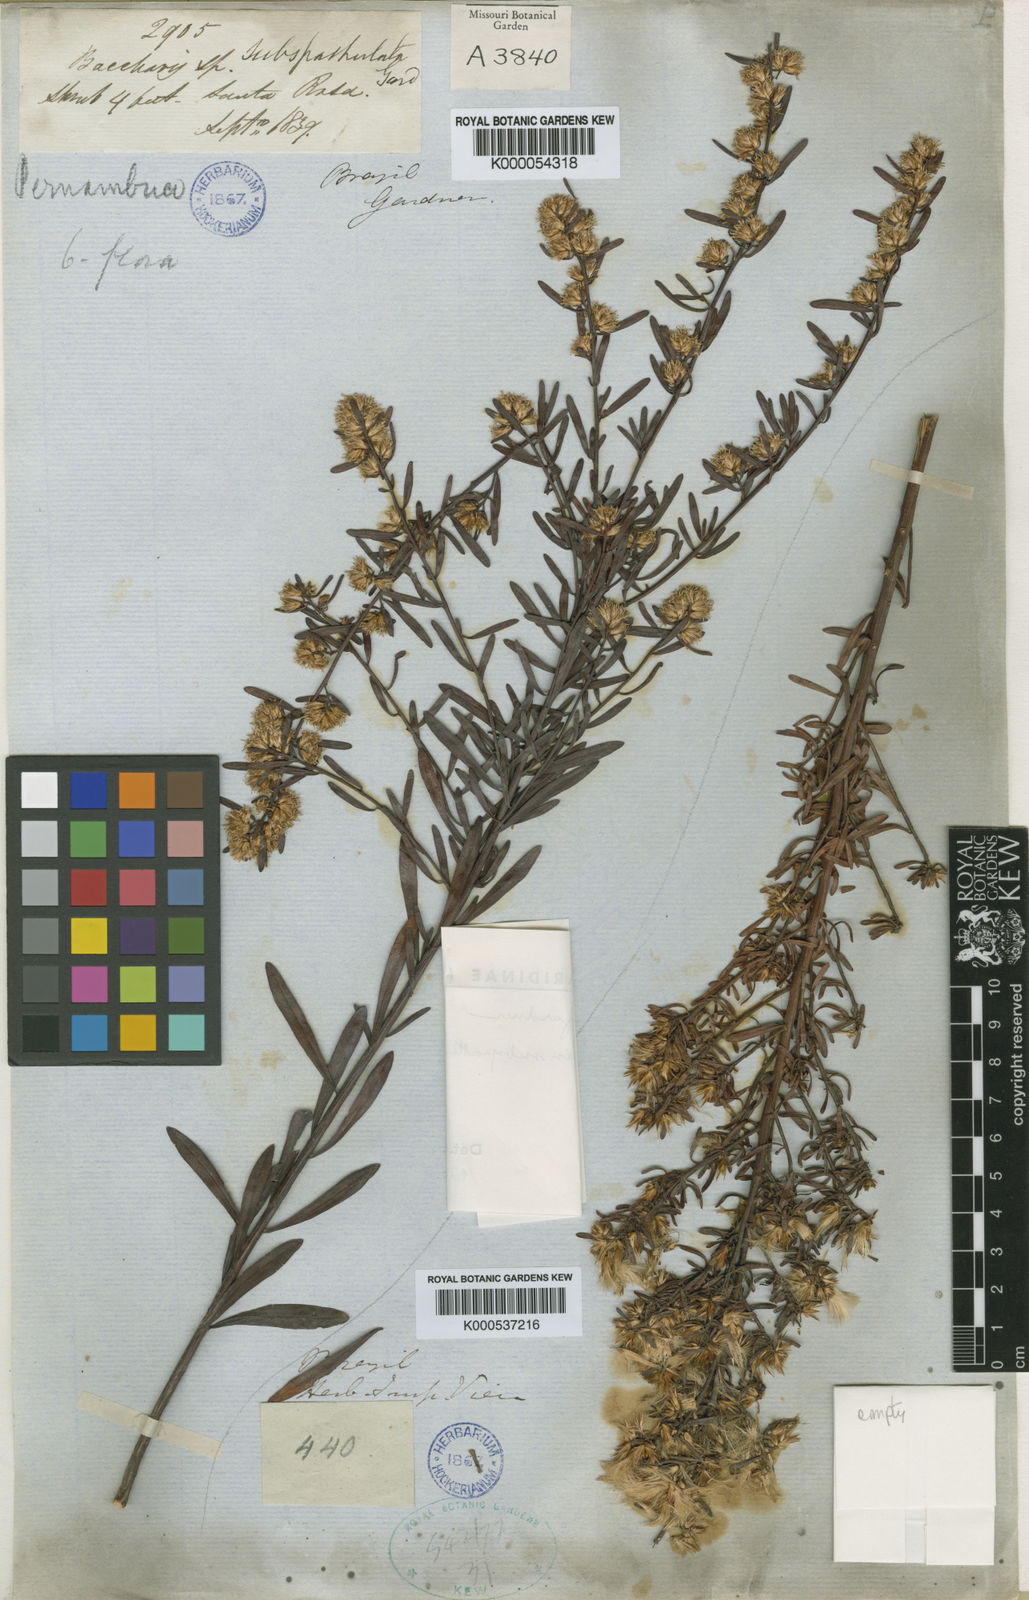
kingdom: Plantae
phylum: Tracheophyta
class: Magnoliopsida
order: Asterales
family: Asteraceae
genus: Baccharis
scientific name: Baccharis linearifolia
